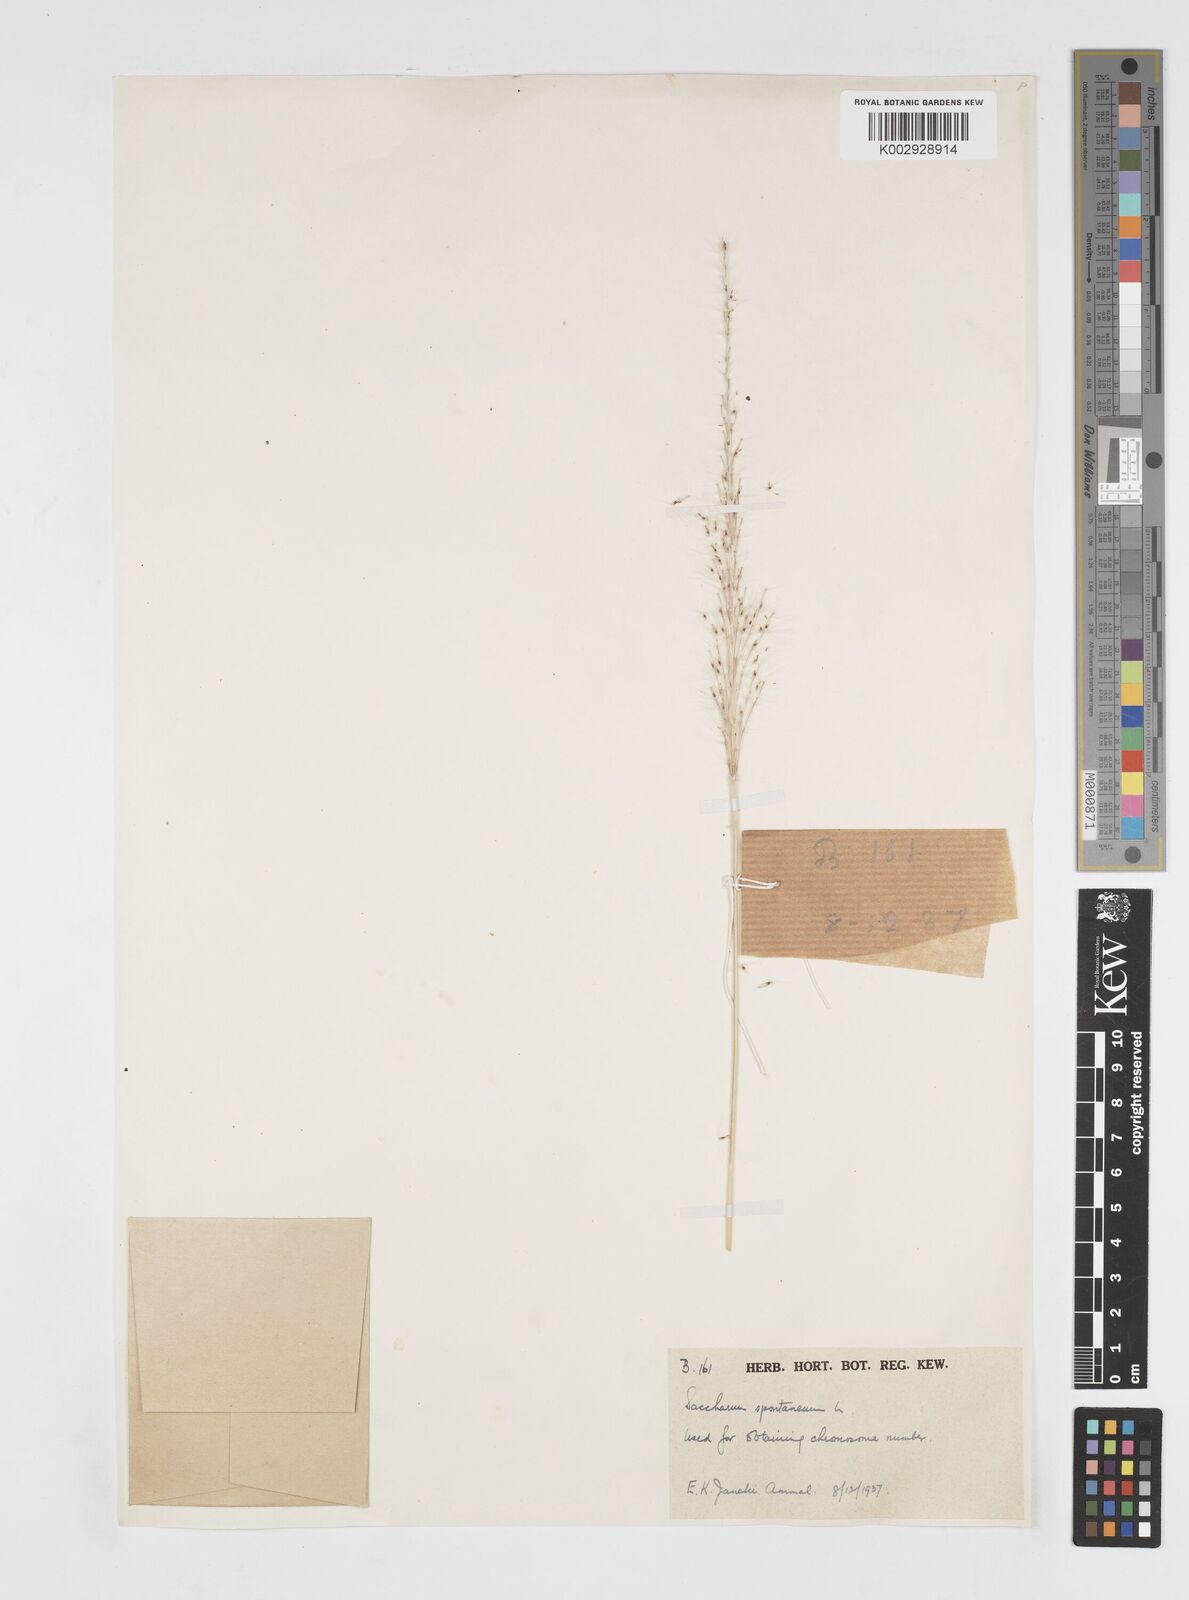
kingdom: Plantae
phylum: Tracheophyta
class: Liliopsida
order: Poales
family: Poaceae
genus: Saccharum
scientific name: Saccharum spontaneum
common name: Wild sugarcane
